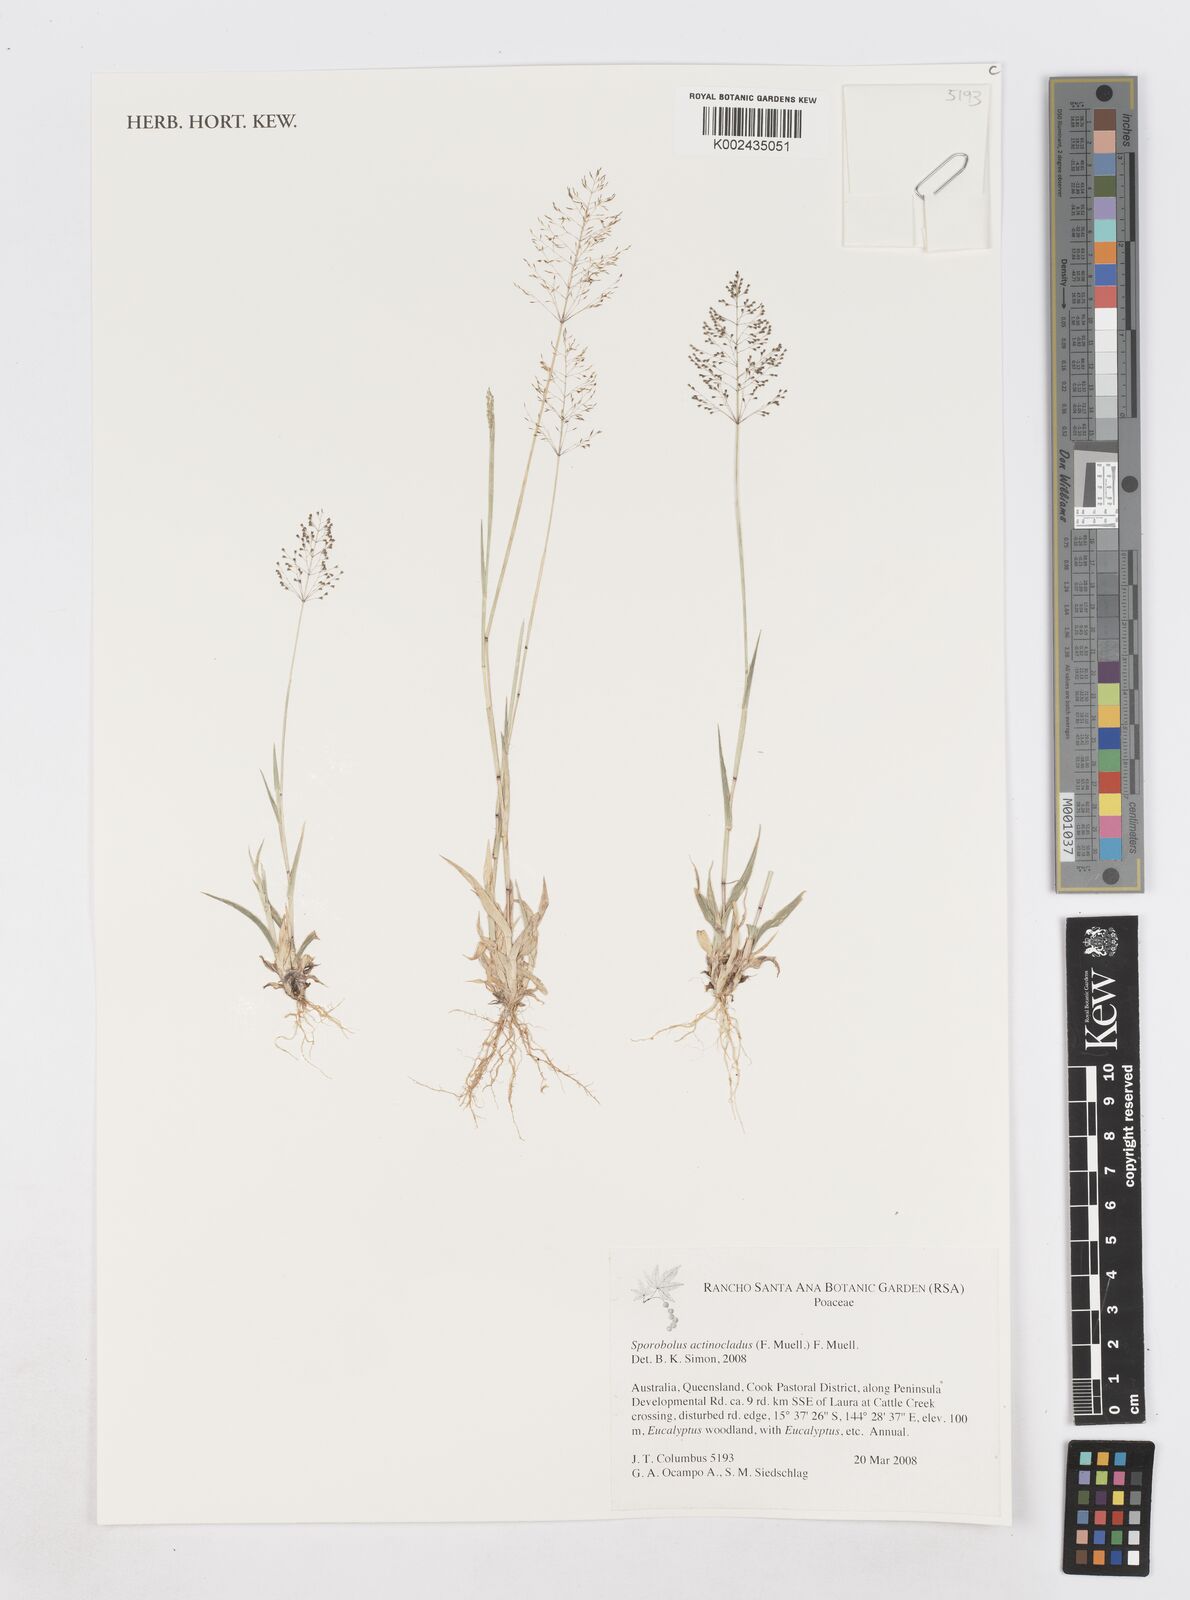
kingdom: Plantae
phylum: Tracheophyta
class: Liliopsida
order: Poales
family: Poaceae
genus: Sporobolus
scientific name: Sporobolus actinocladus
